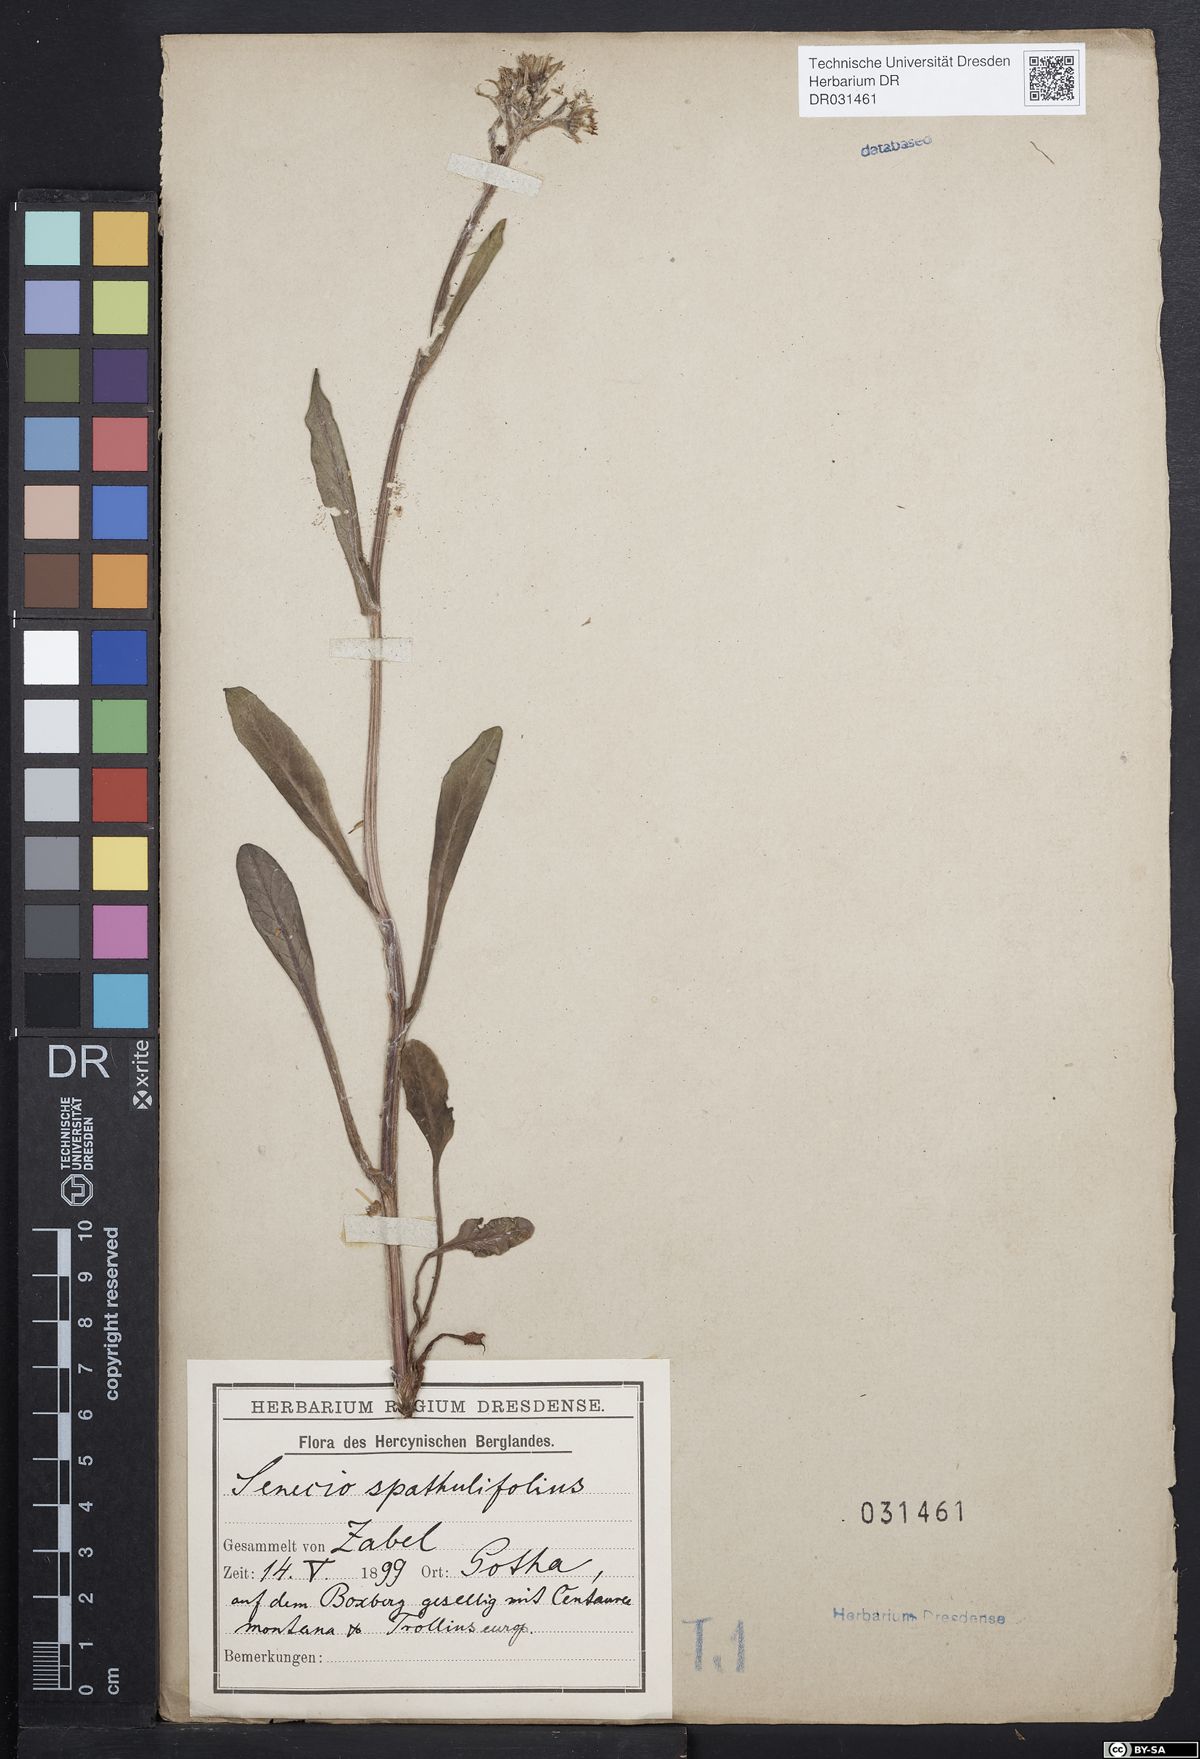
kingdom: Plantae
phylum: Tracheophyta
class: Magnoliopsida
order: Asterales
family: Asteraceae
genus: Tephroseris
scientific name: Tephroseris helenitis
